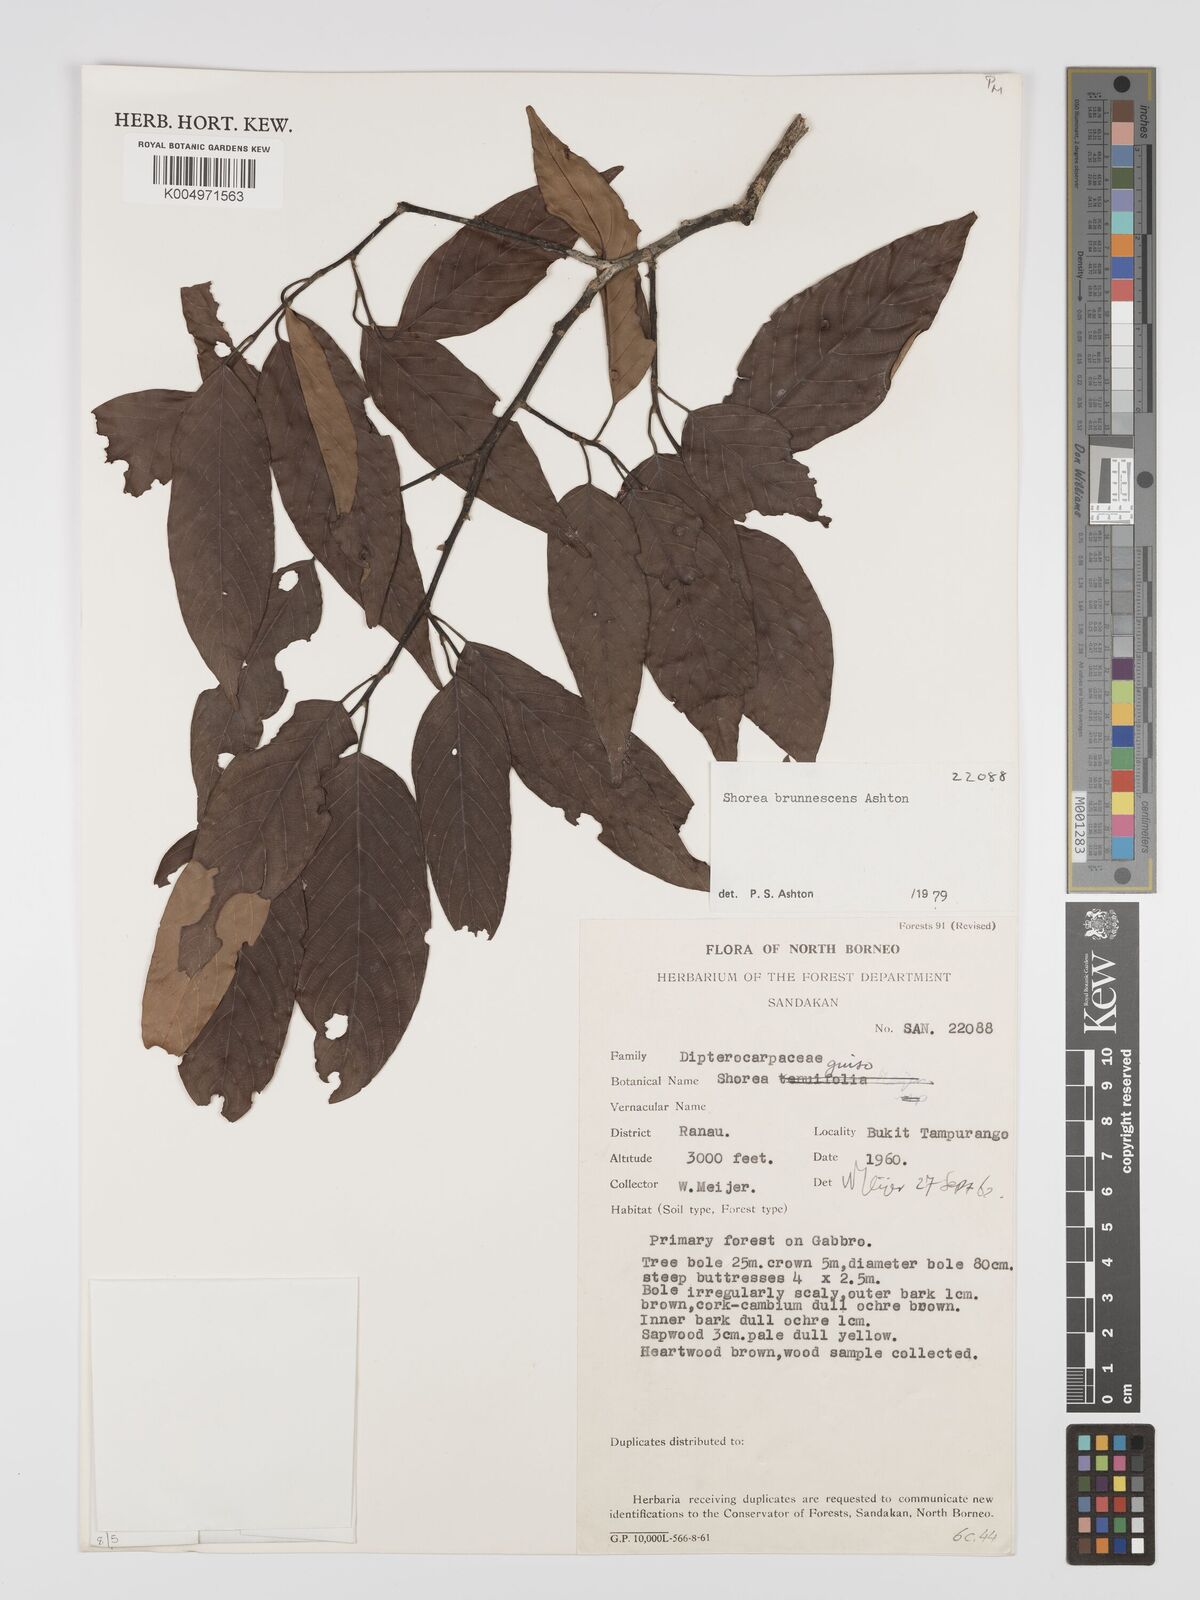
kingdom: Plantae
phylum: Tracheophyta
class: Magnoliopsida
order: Malvales
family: Dipterocarpaceae
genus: Shorea
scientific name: Shorea brunnescens
